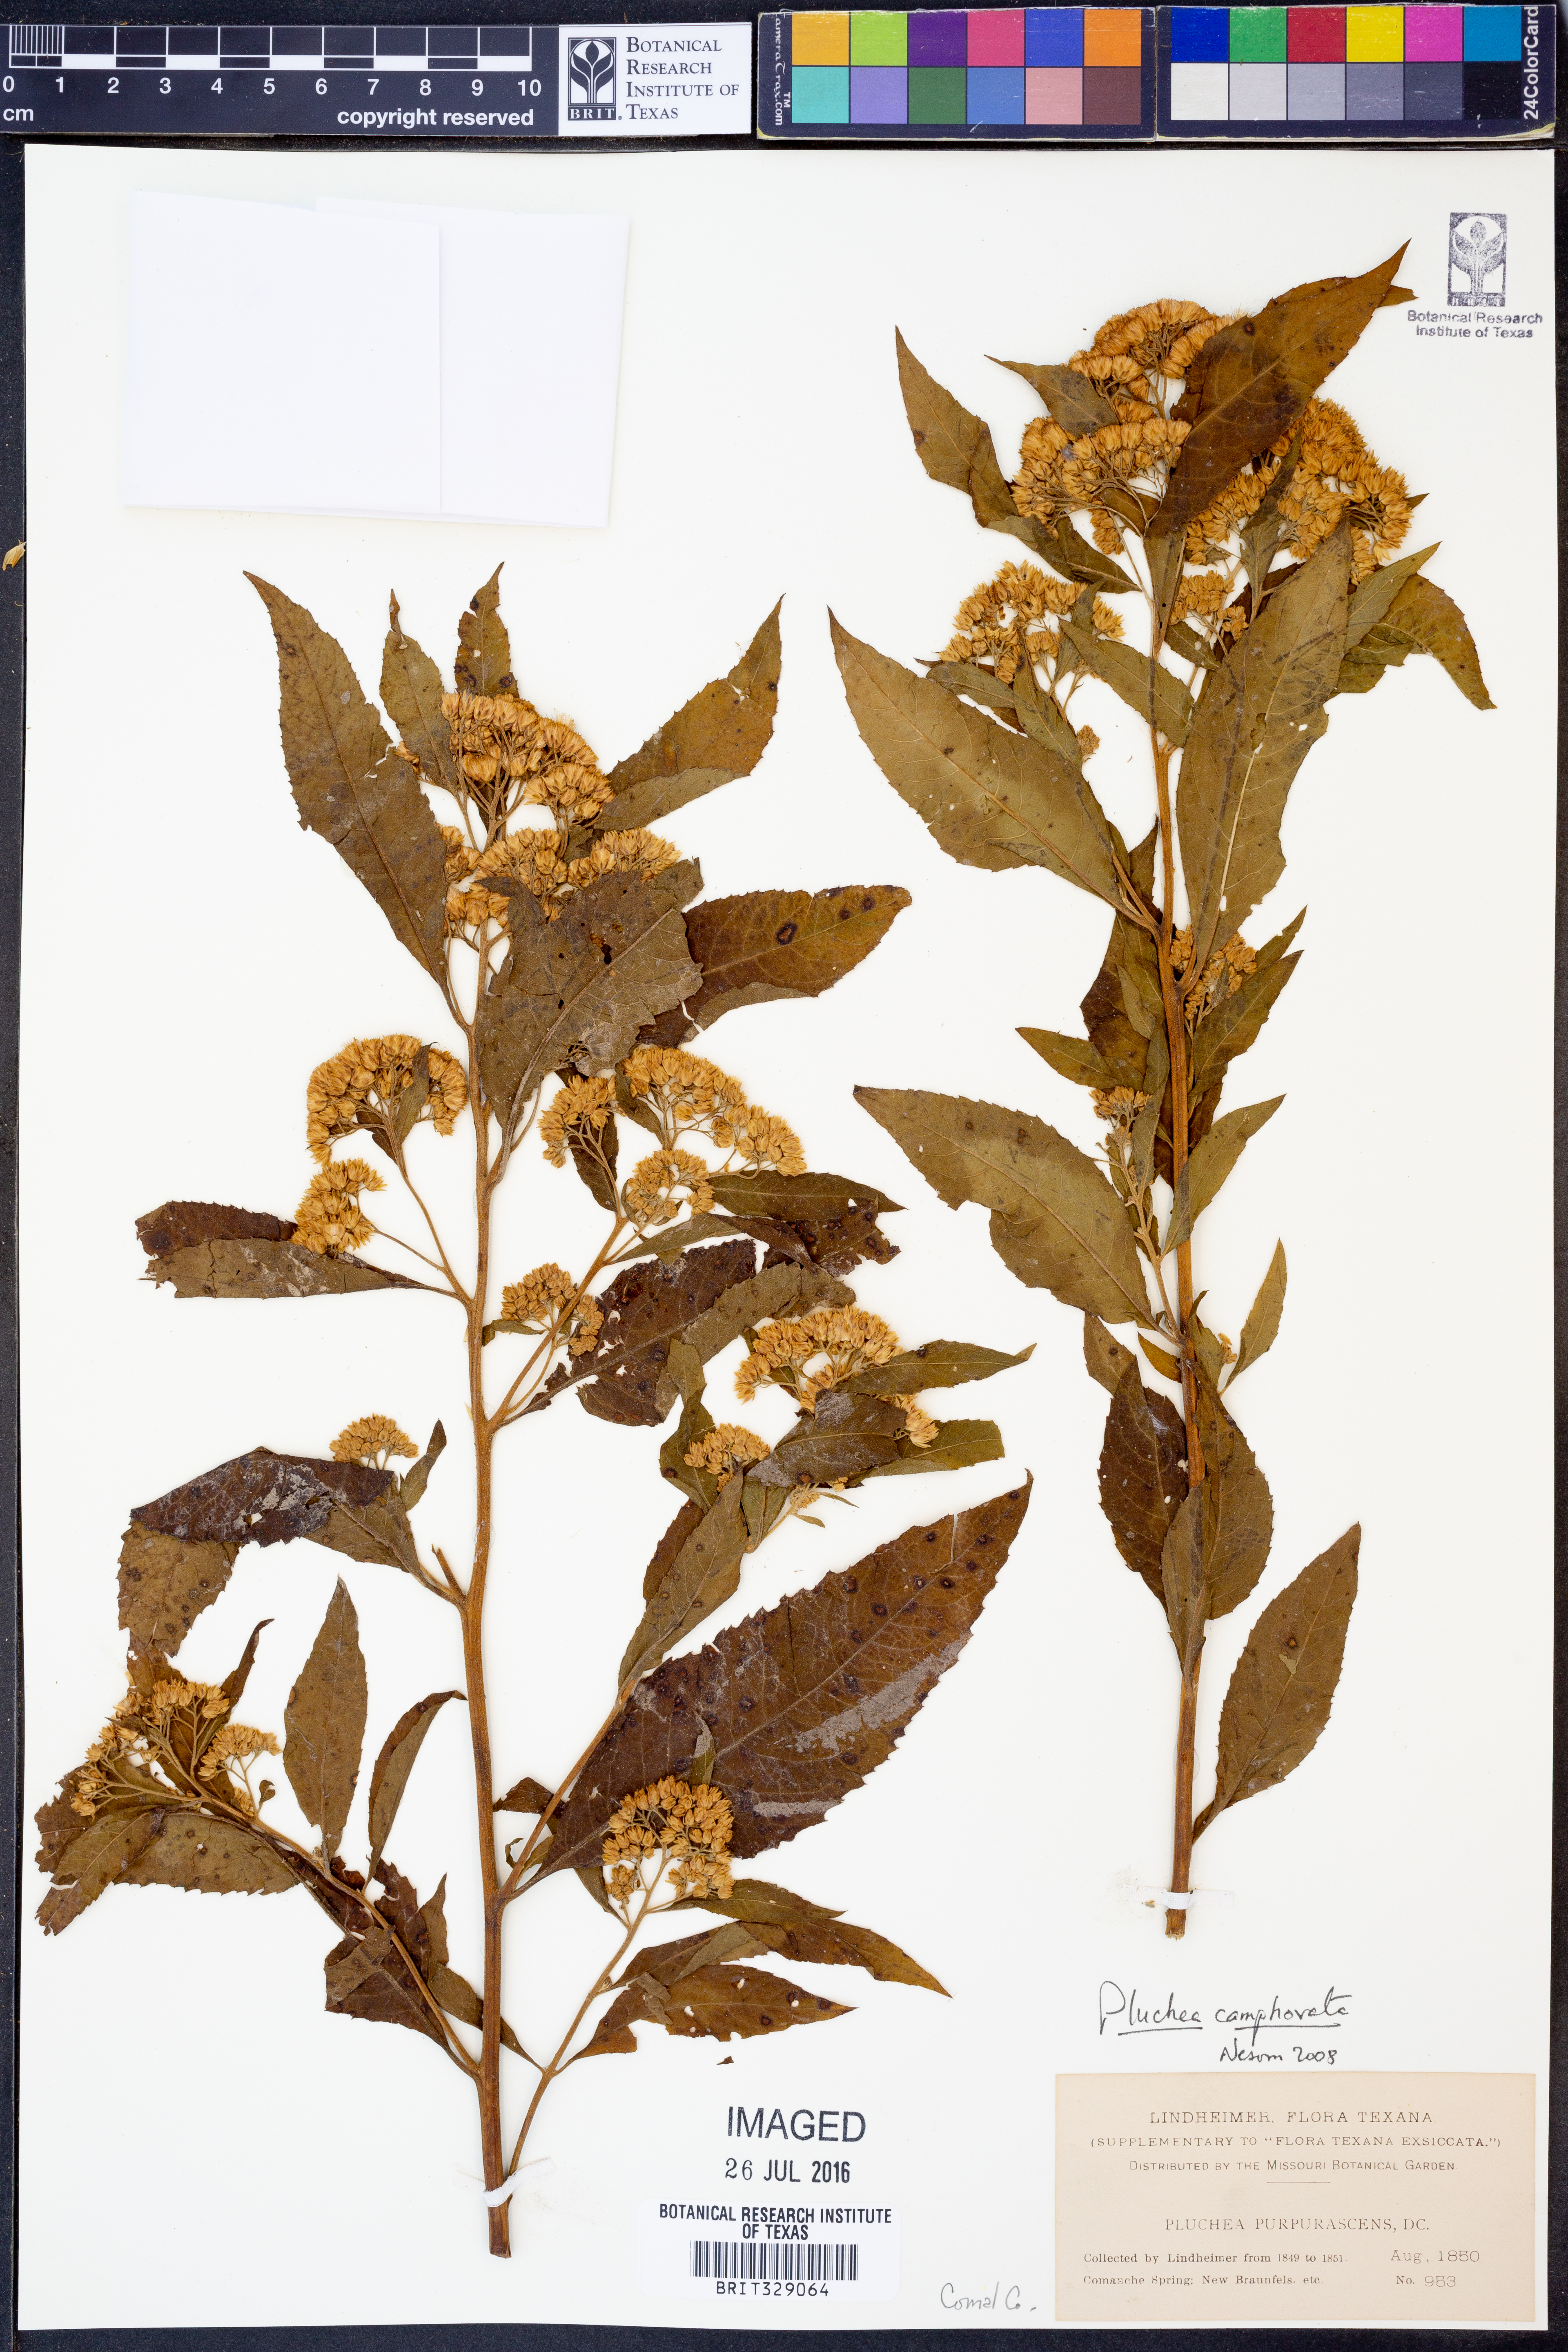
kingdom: Plantae
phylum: Tracheophyta
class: Magnoliopsida
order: Asterales
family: Asteraceae
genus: Pluchea
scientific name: Pluchea camphorata
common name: Camphor pluchea
